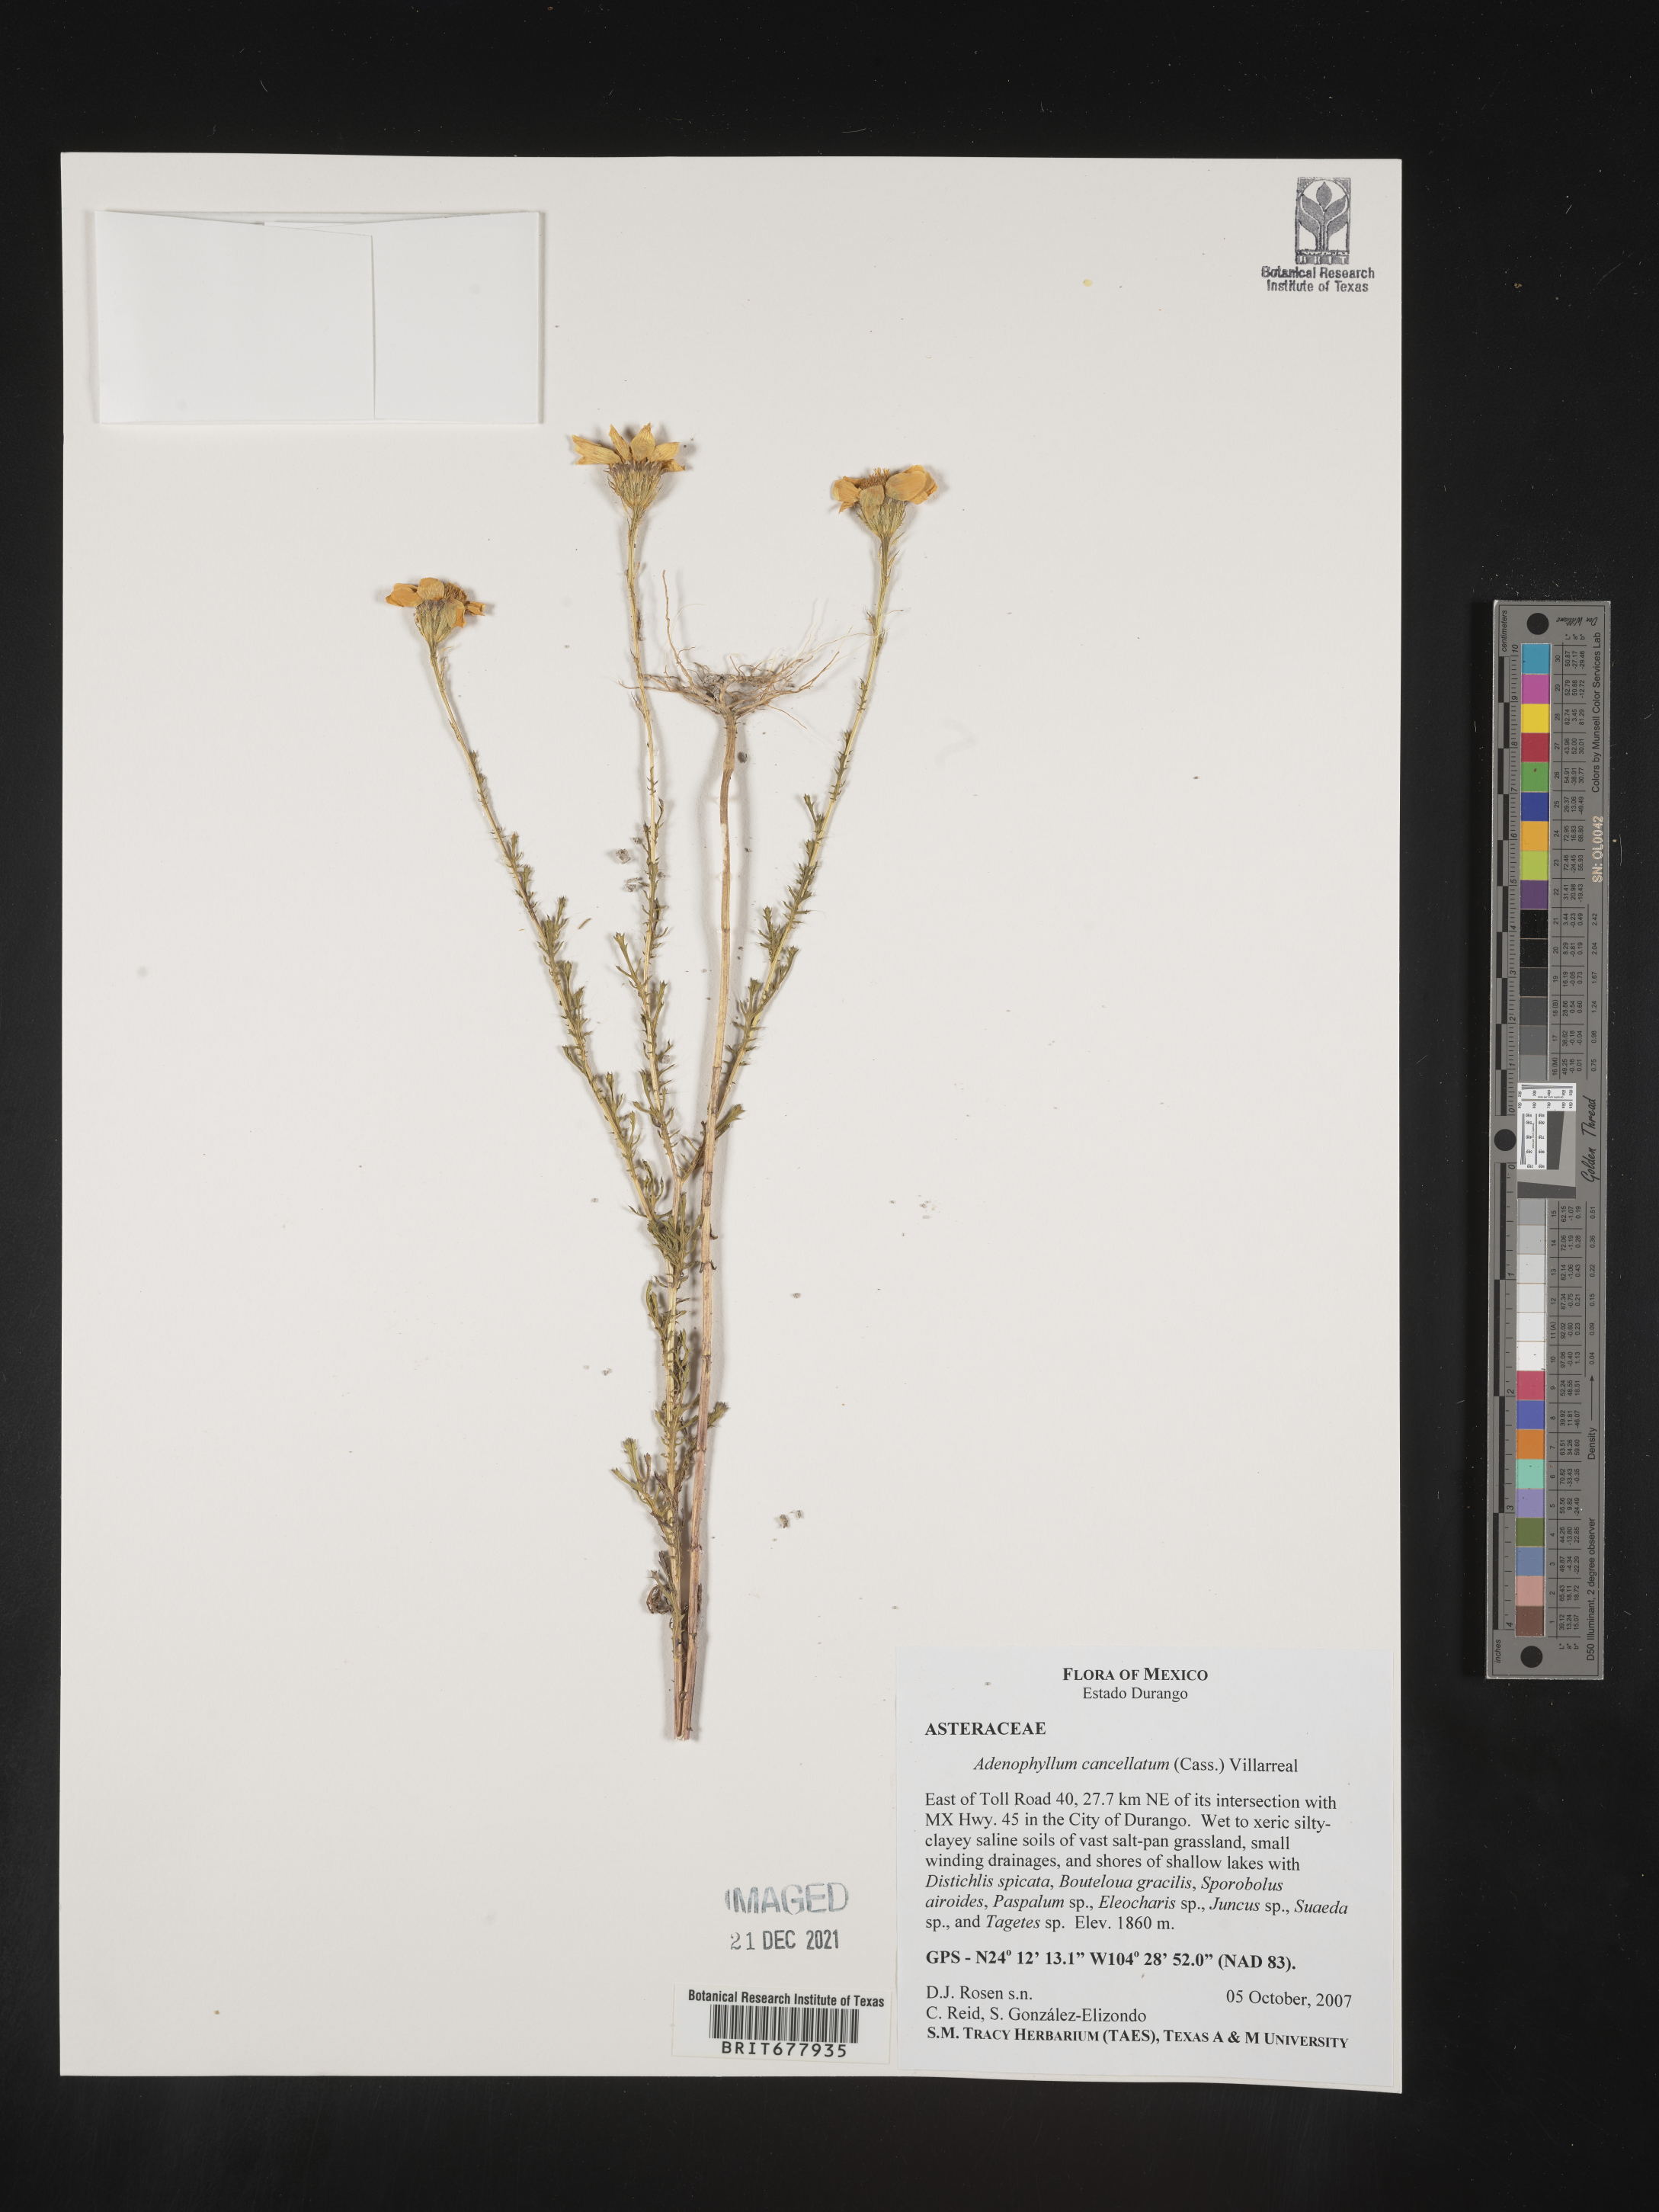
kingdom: Plantae
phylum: Tracheophyta
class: Magnoliopsida
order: Asterales
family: Asteraceae
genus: Adenophyllum
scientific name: Adenophyllum
